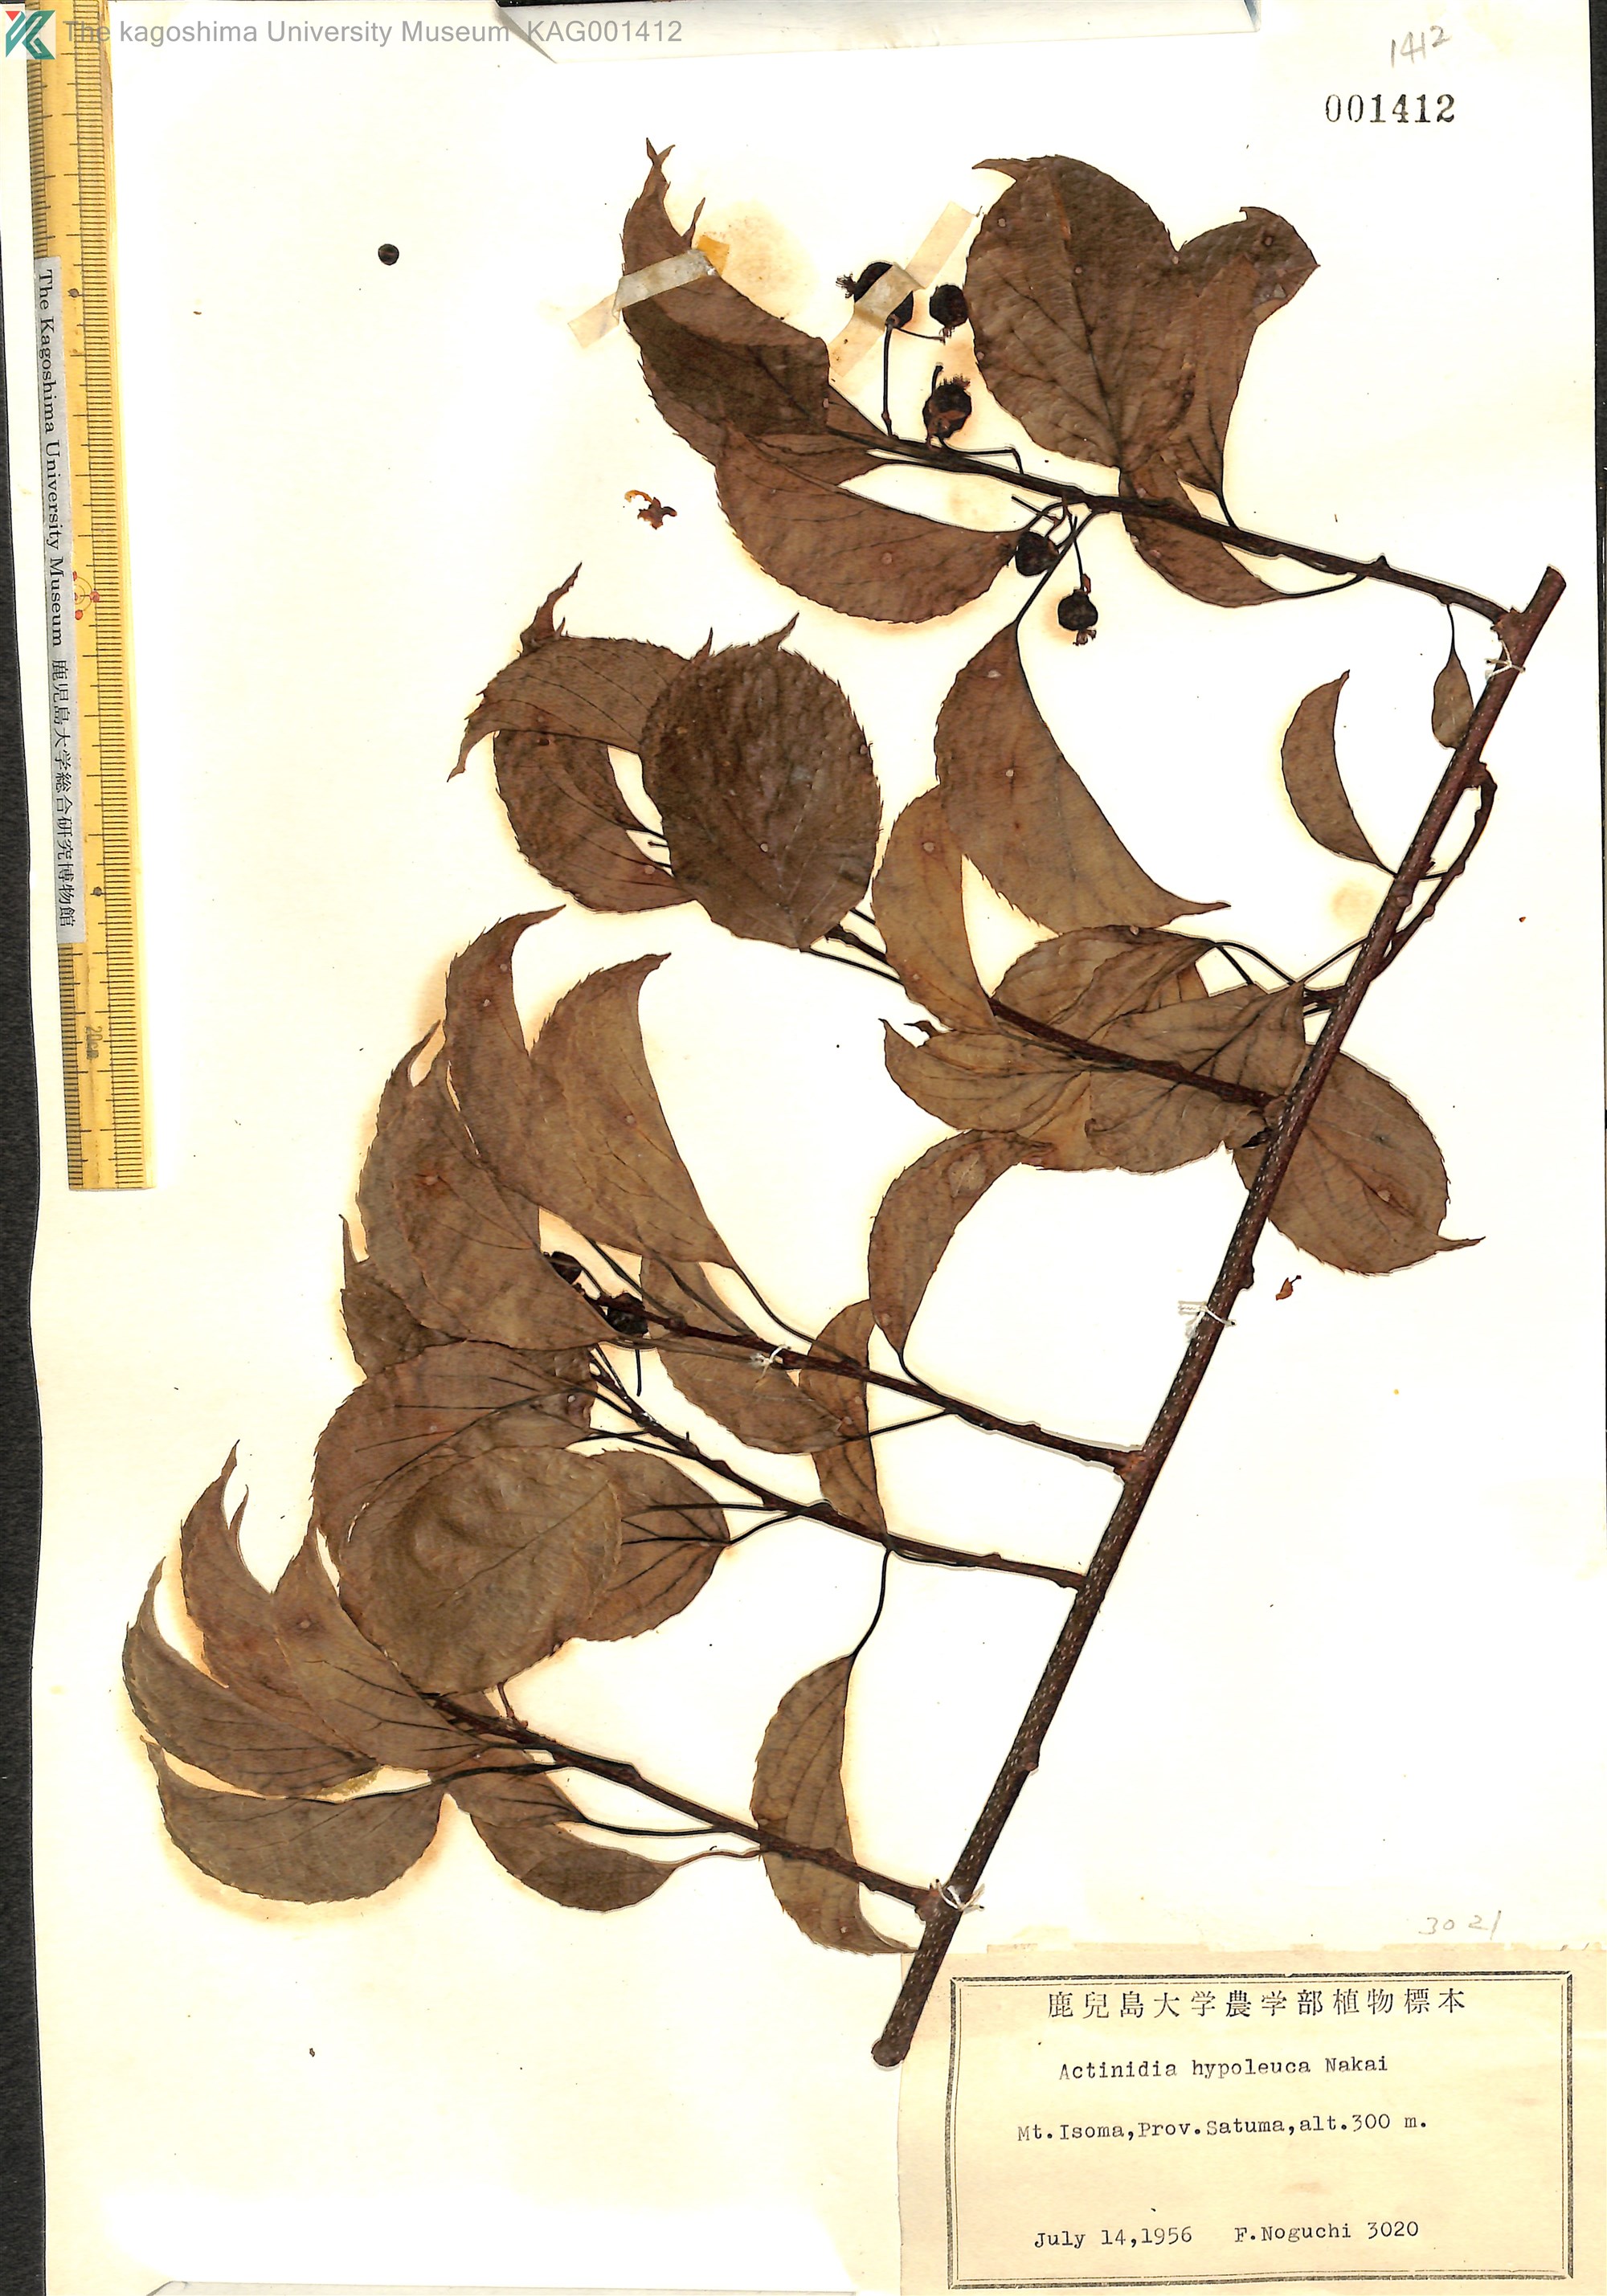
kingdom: Plantae
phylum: Tracheophyta
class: Magnoliopsida
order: Ericales
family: Actinidiaceae
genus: Actinidia
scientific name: Actinidia arguta
